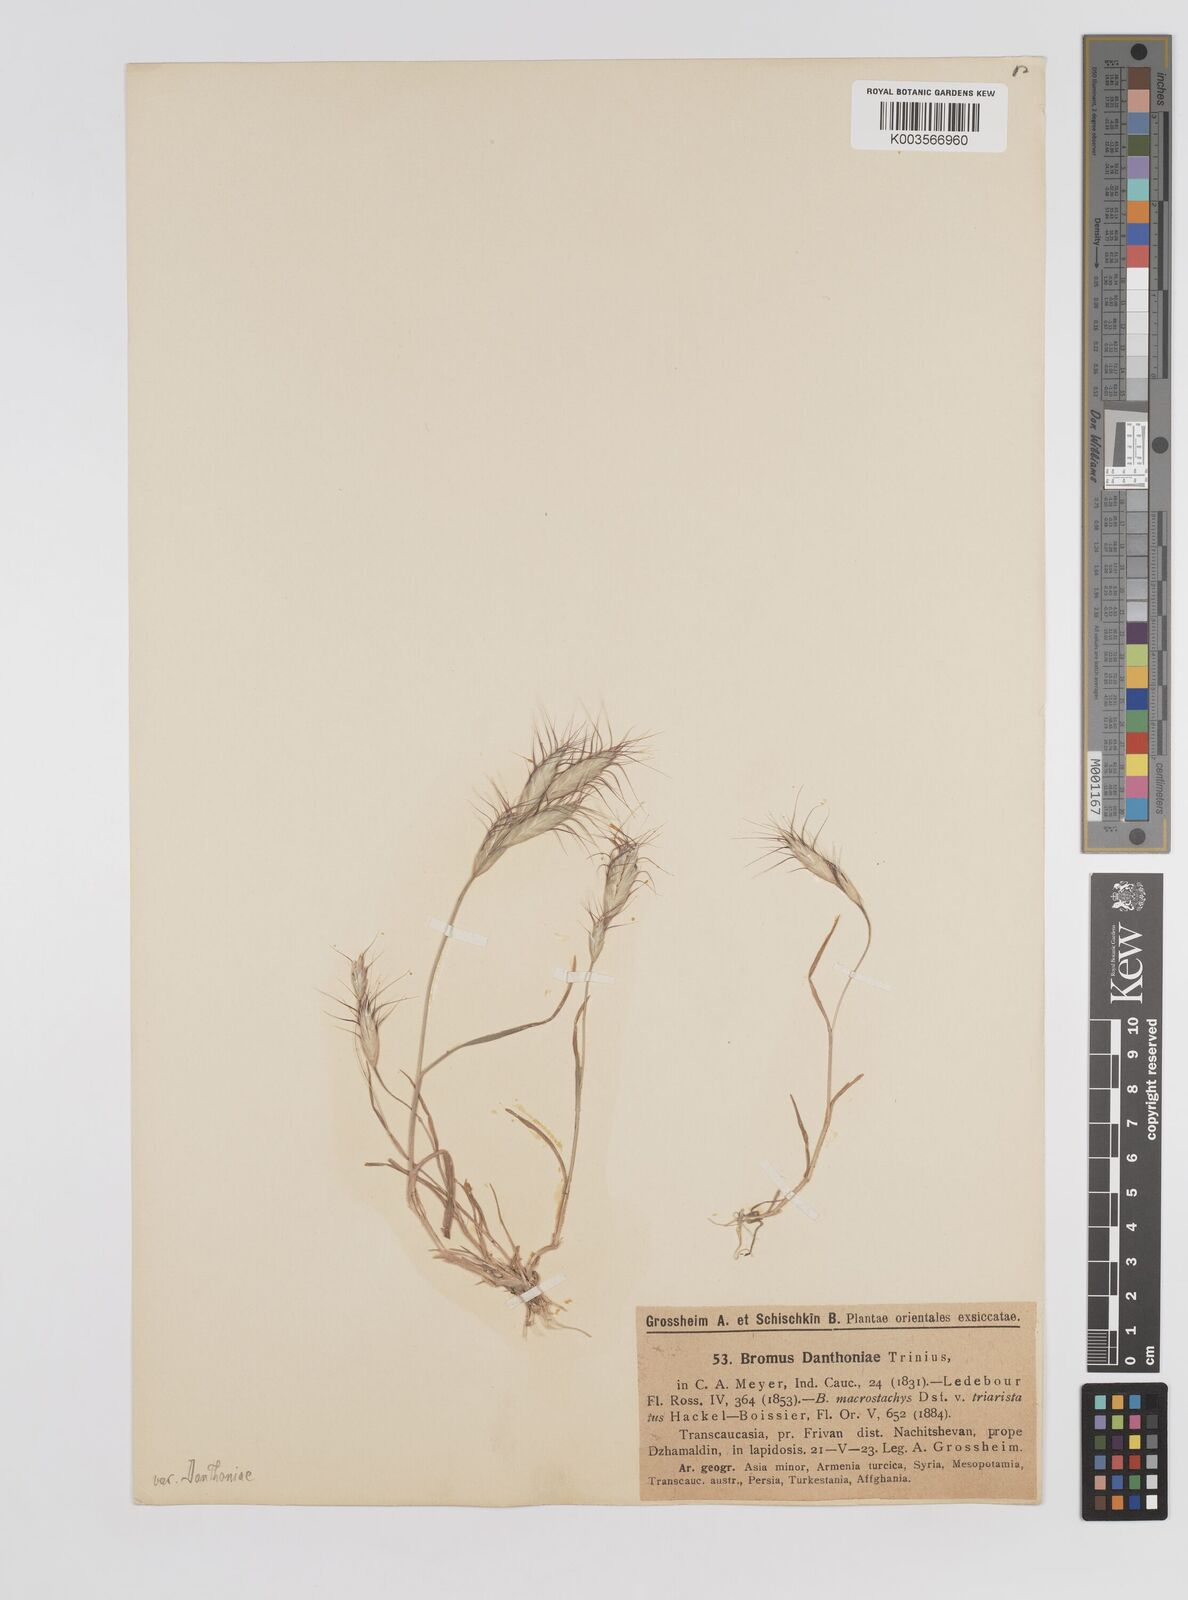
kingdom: Plantae
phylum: Tracheophyta
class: Liliopsida
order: Poales
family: Poaceae
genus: Bromus
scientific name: Bromus danthoniae
